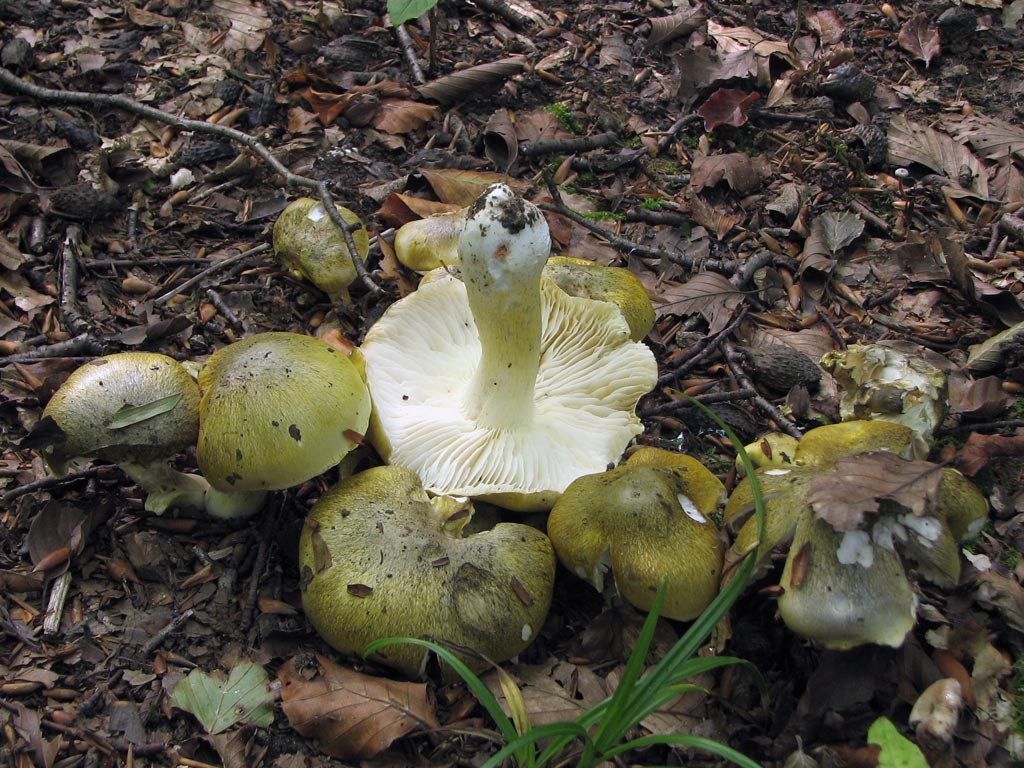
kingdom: Fungi
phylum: Basidiomycota
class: Agaricomycetes
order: Agaricales
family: Tricholomataceae
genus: Tricholoma
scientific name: Tricholoma sejunctum
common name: grøngul ridderhat
